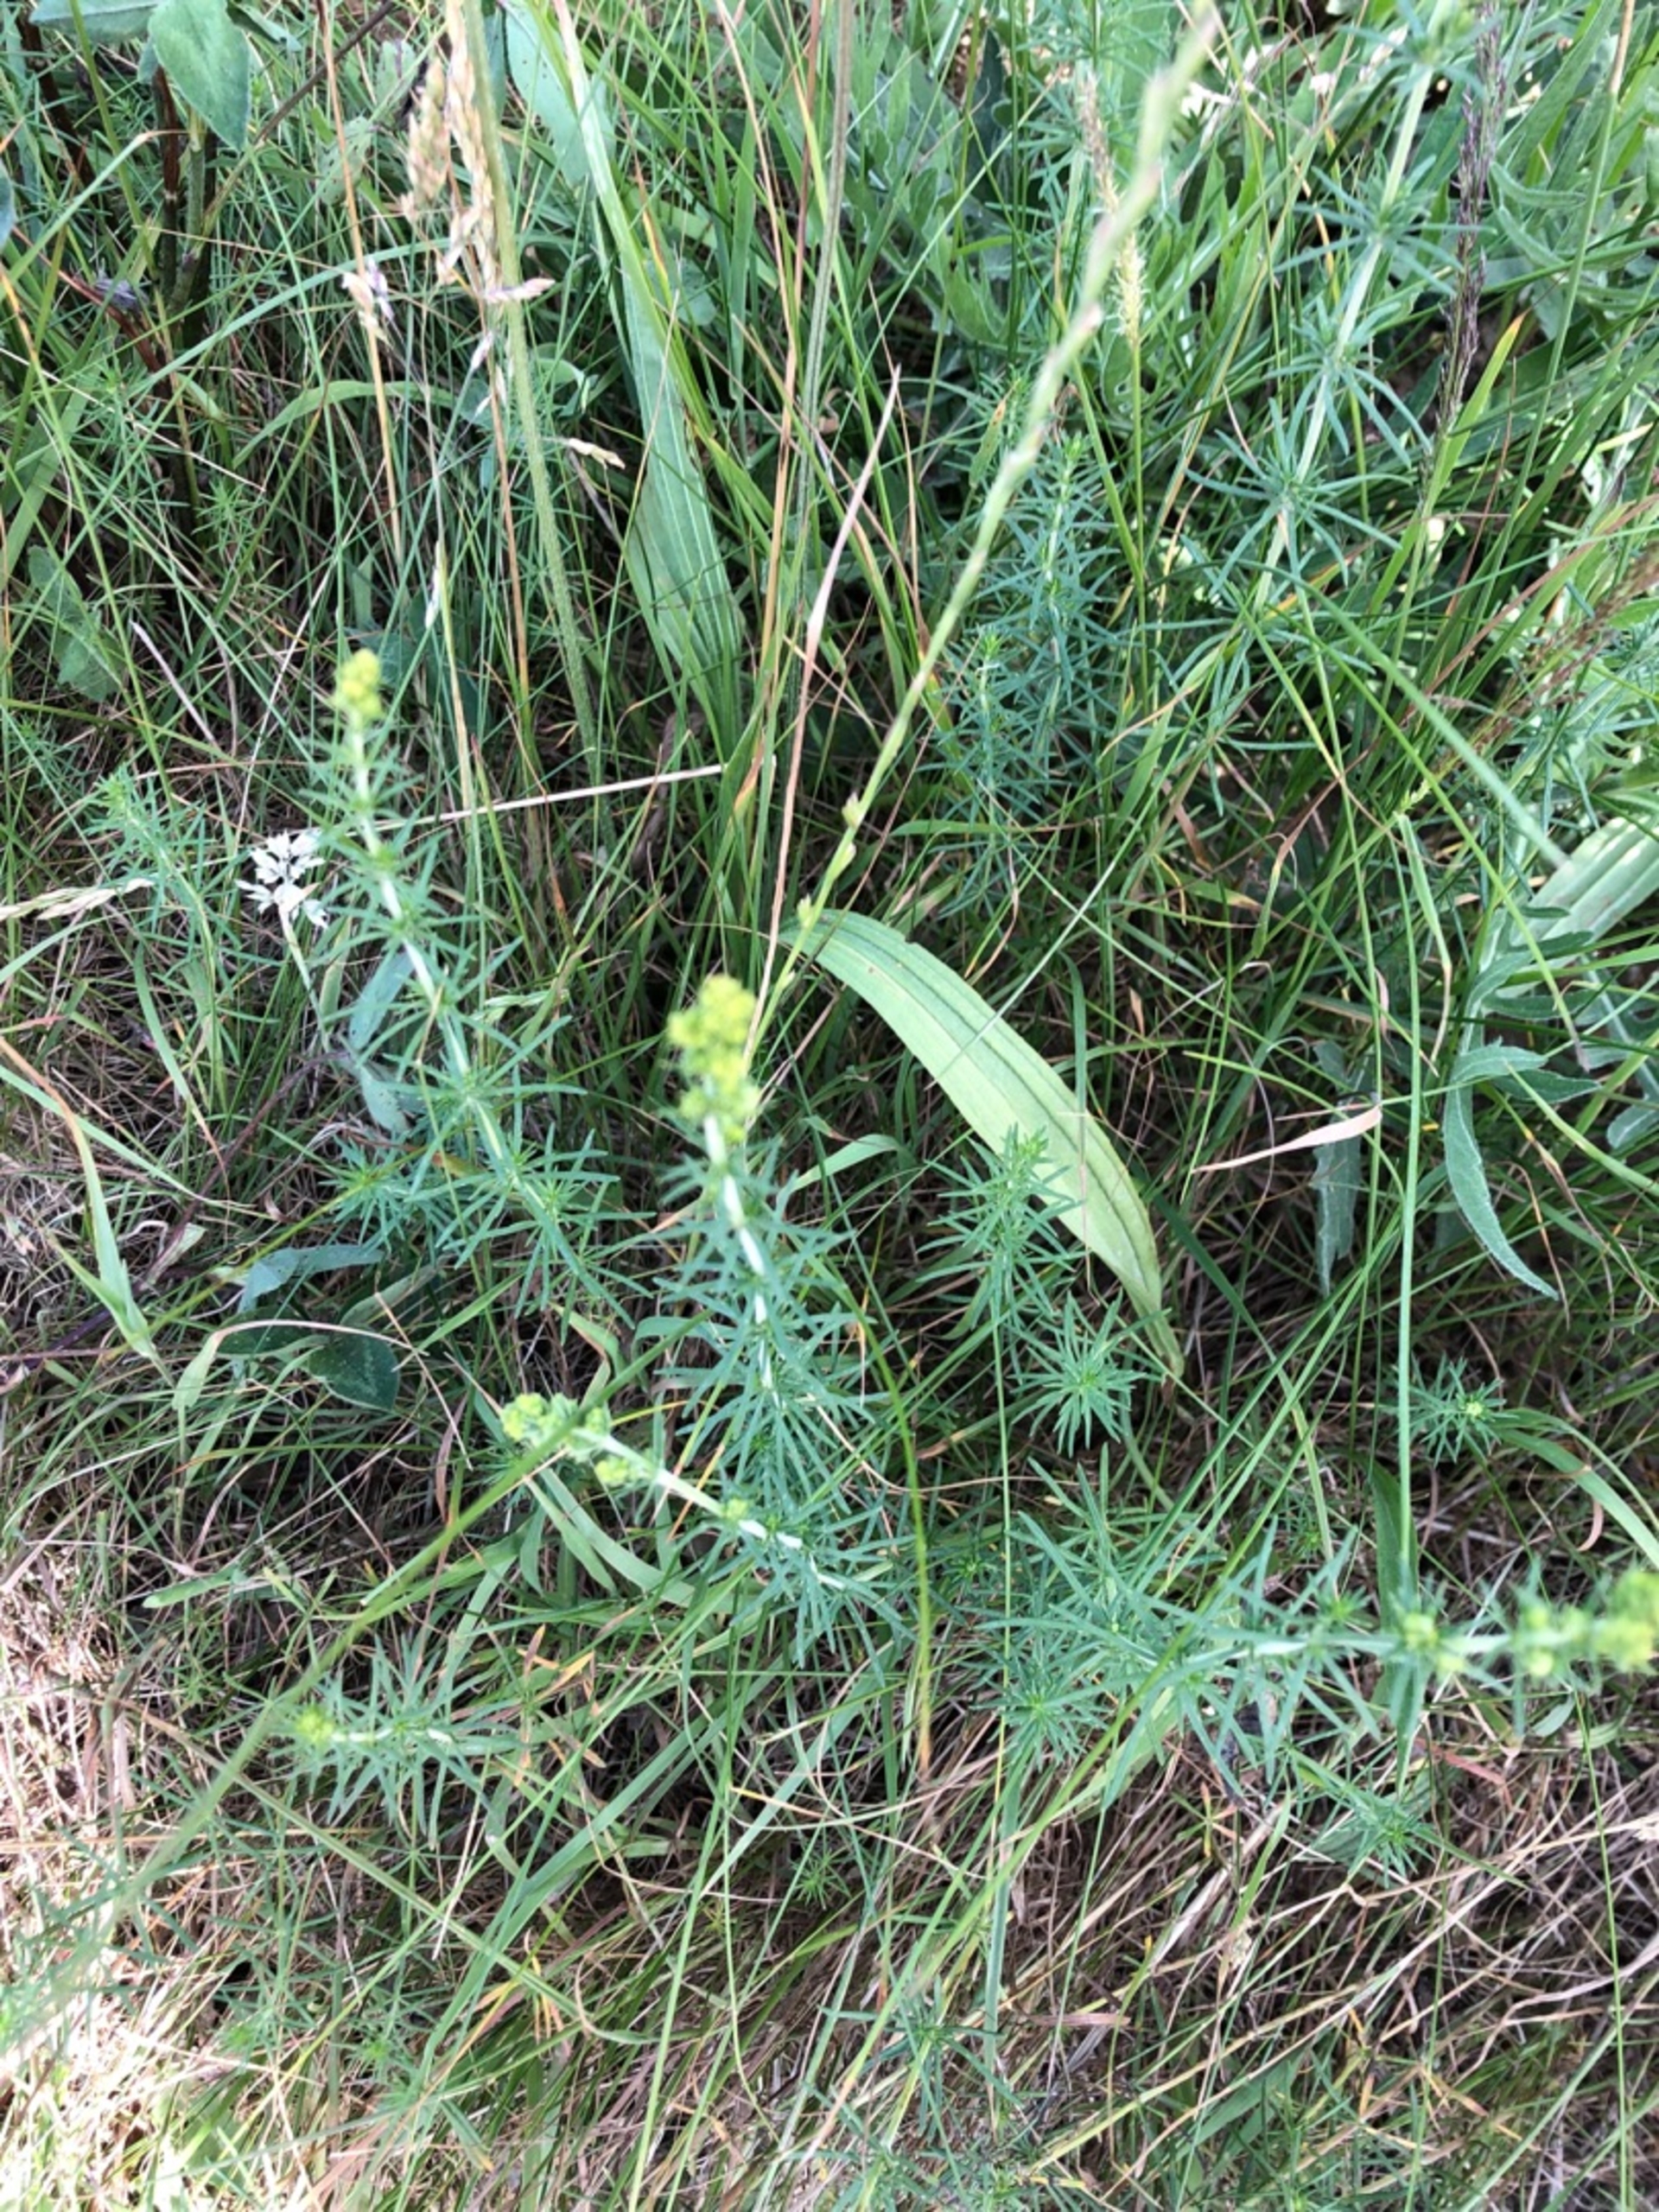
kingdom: Plantae
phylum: Tracheophyta
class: Magnoliopsida
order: Gentianales
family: Rubiaceae
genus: Galium
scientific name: Galium verum
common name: Gul snerre
